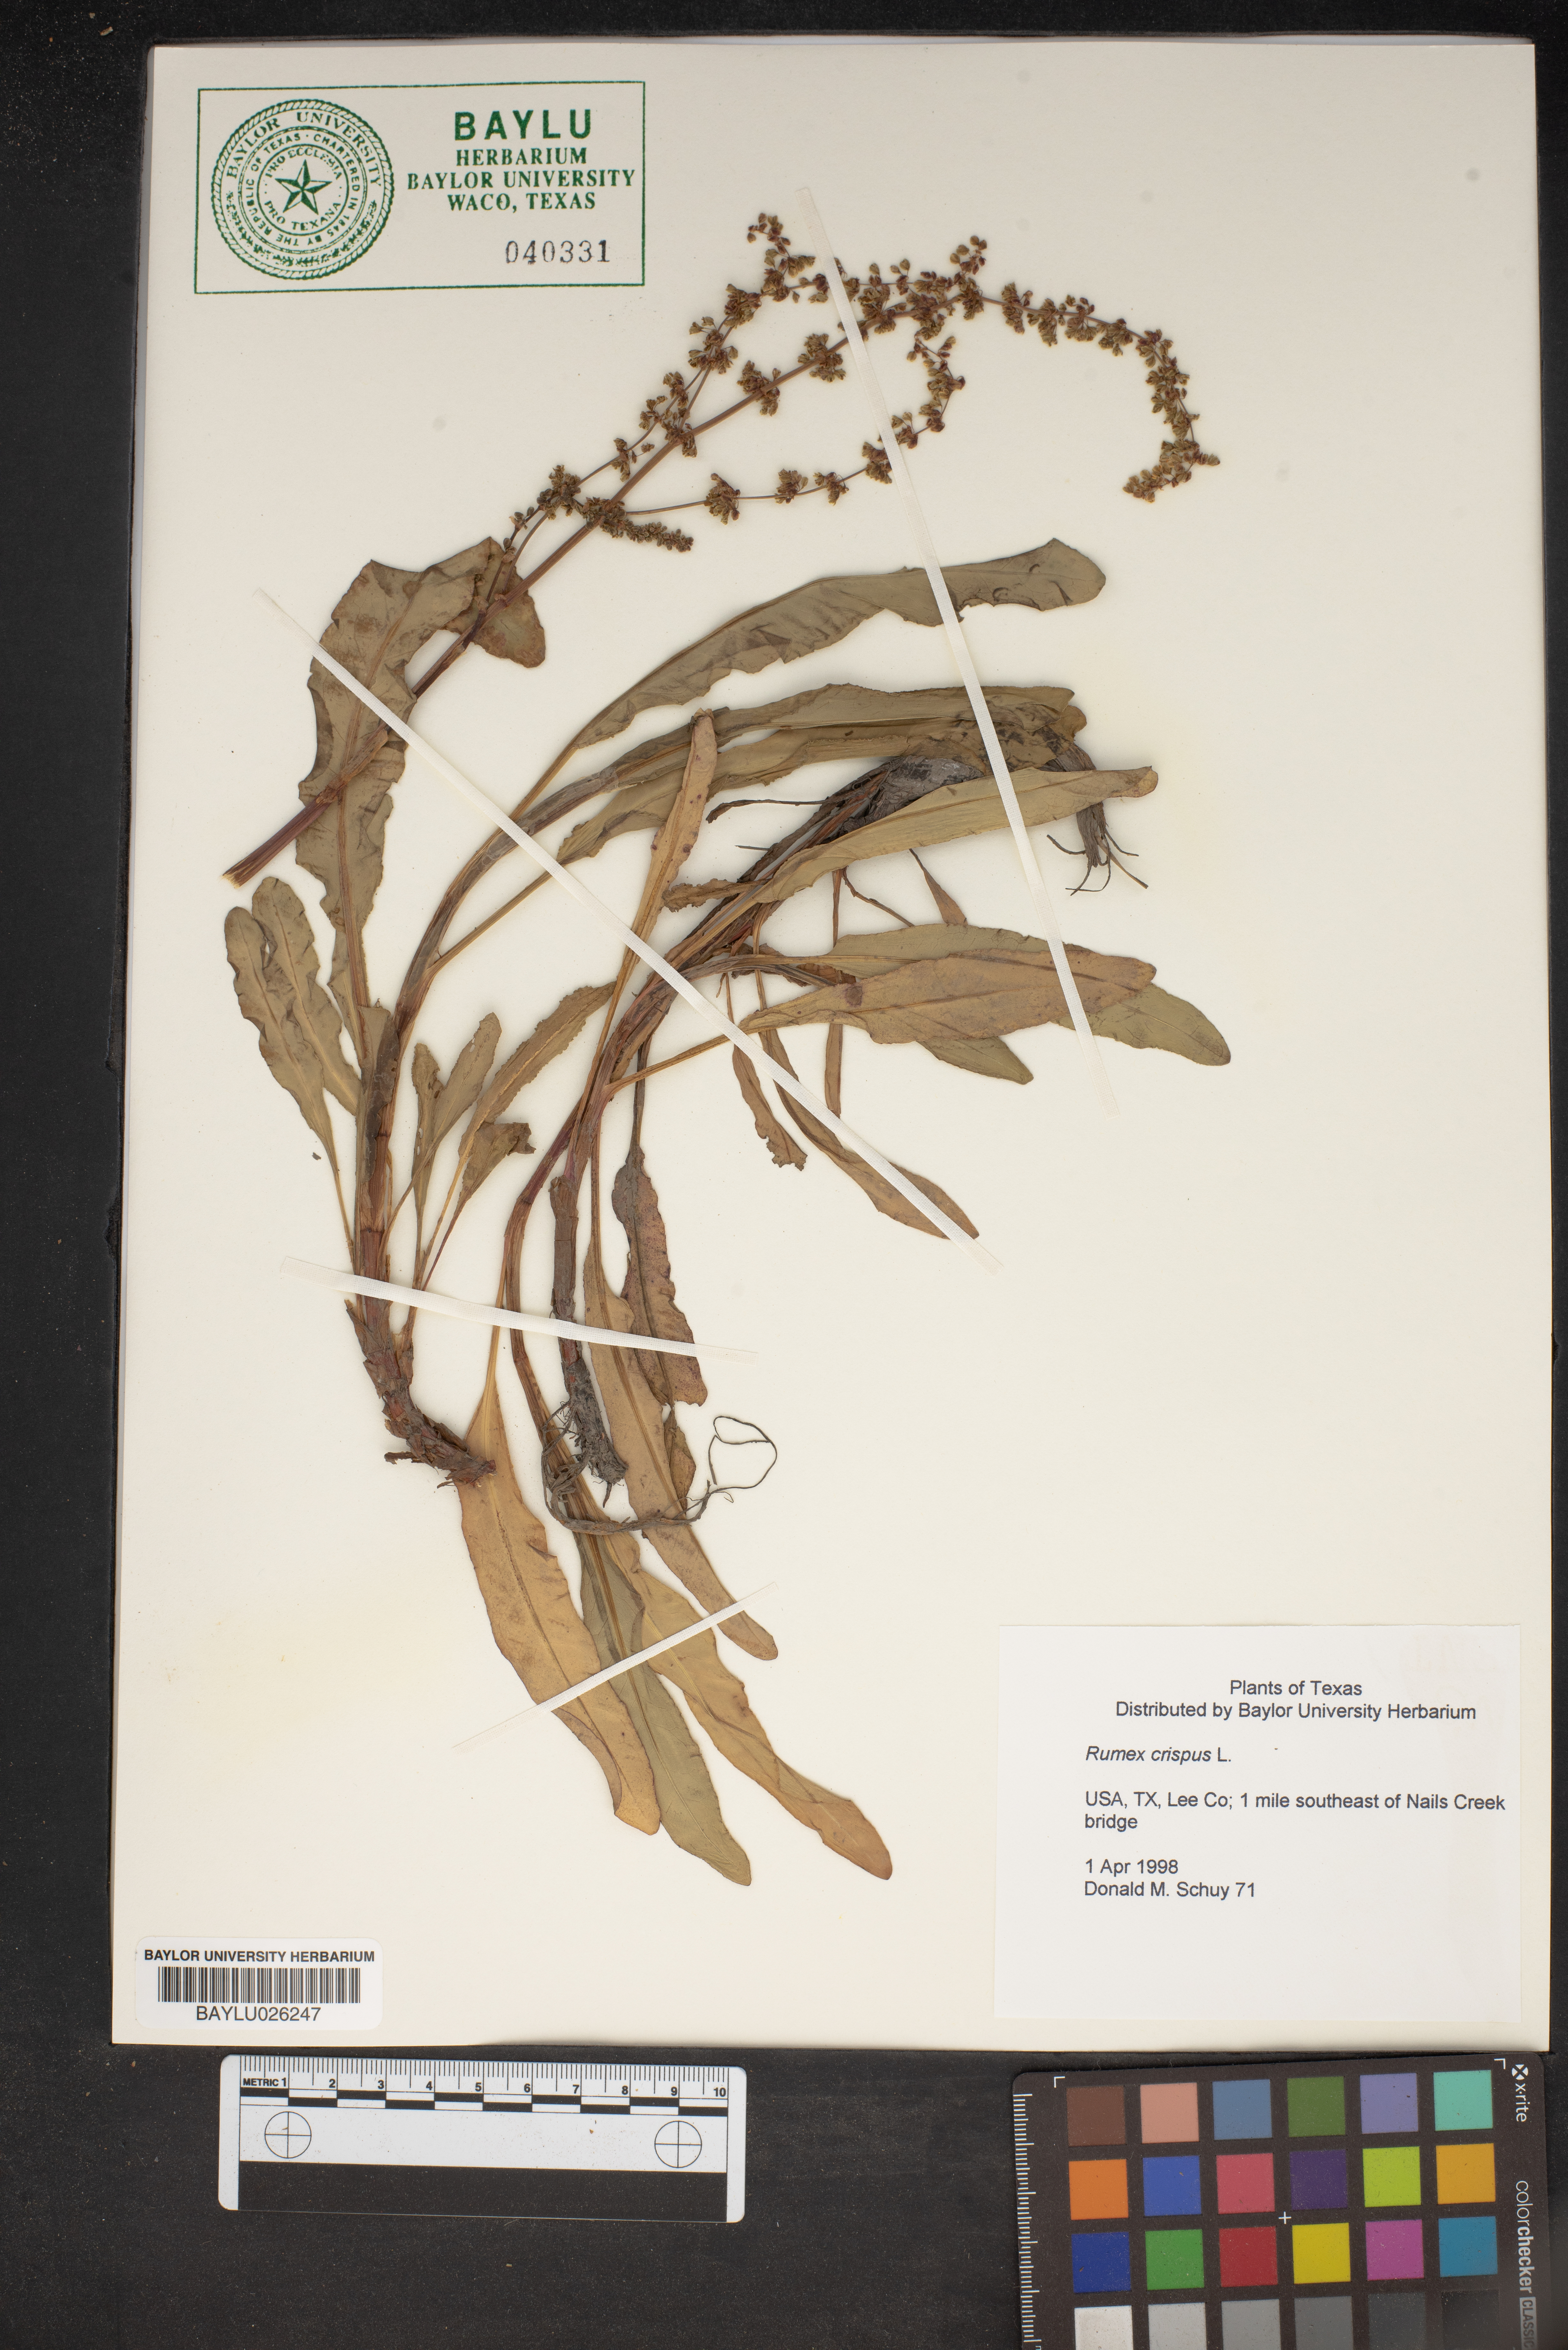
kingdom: Plantae
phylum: Tracheophyta
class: Magnoliopsida
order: Caryophyllales
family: Polygonaceae
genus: Rumex
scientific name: Rumex crispus
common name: Curled dock
